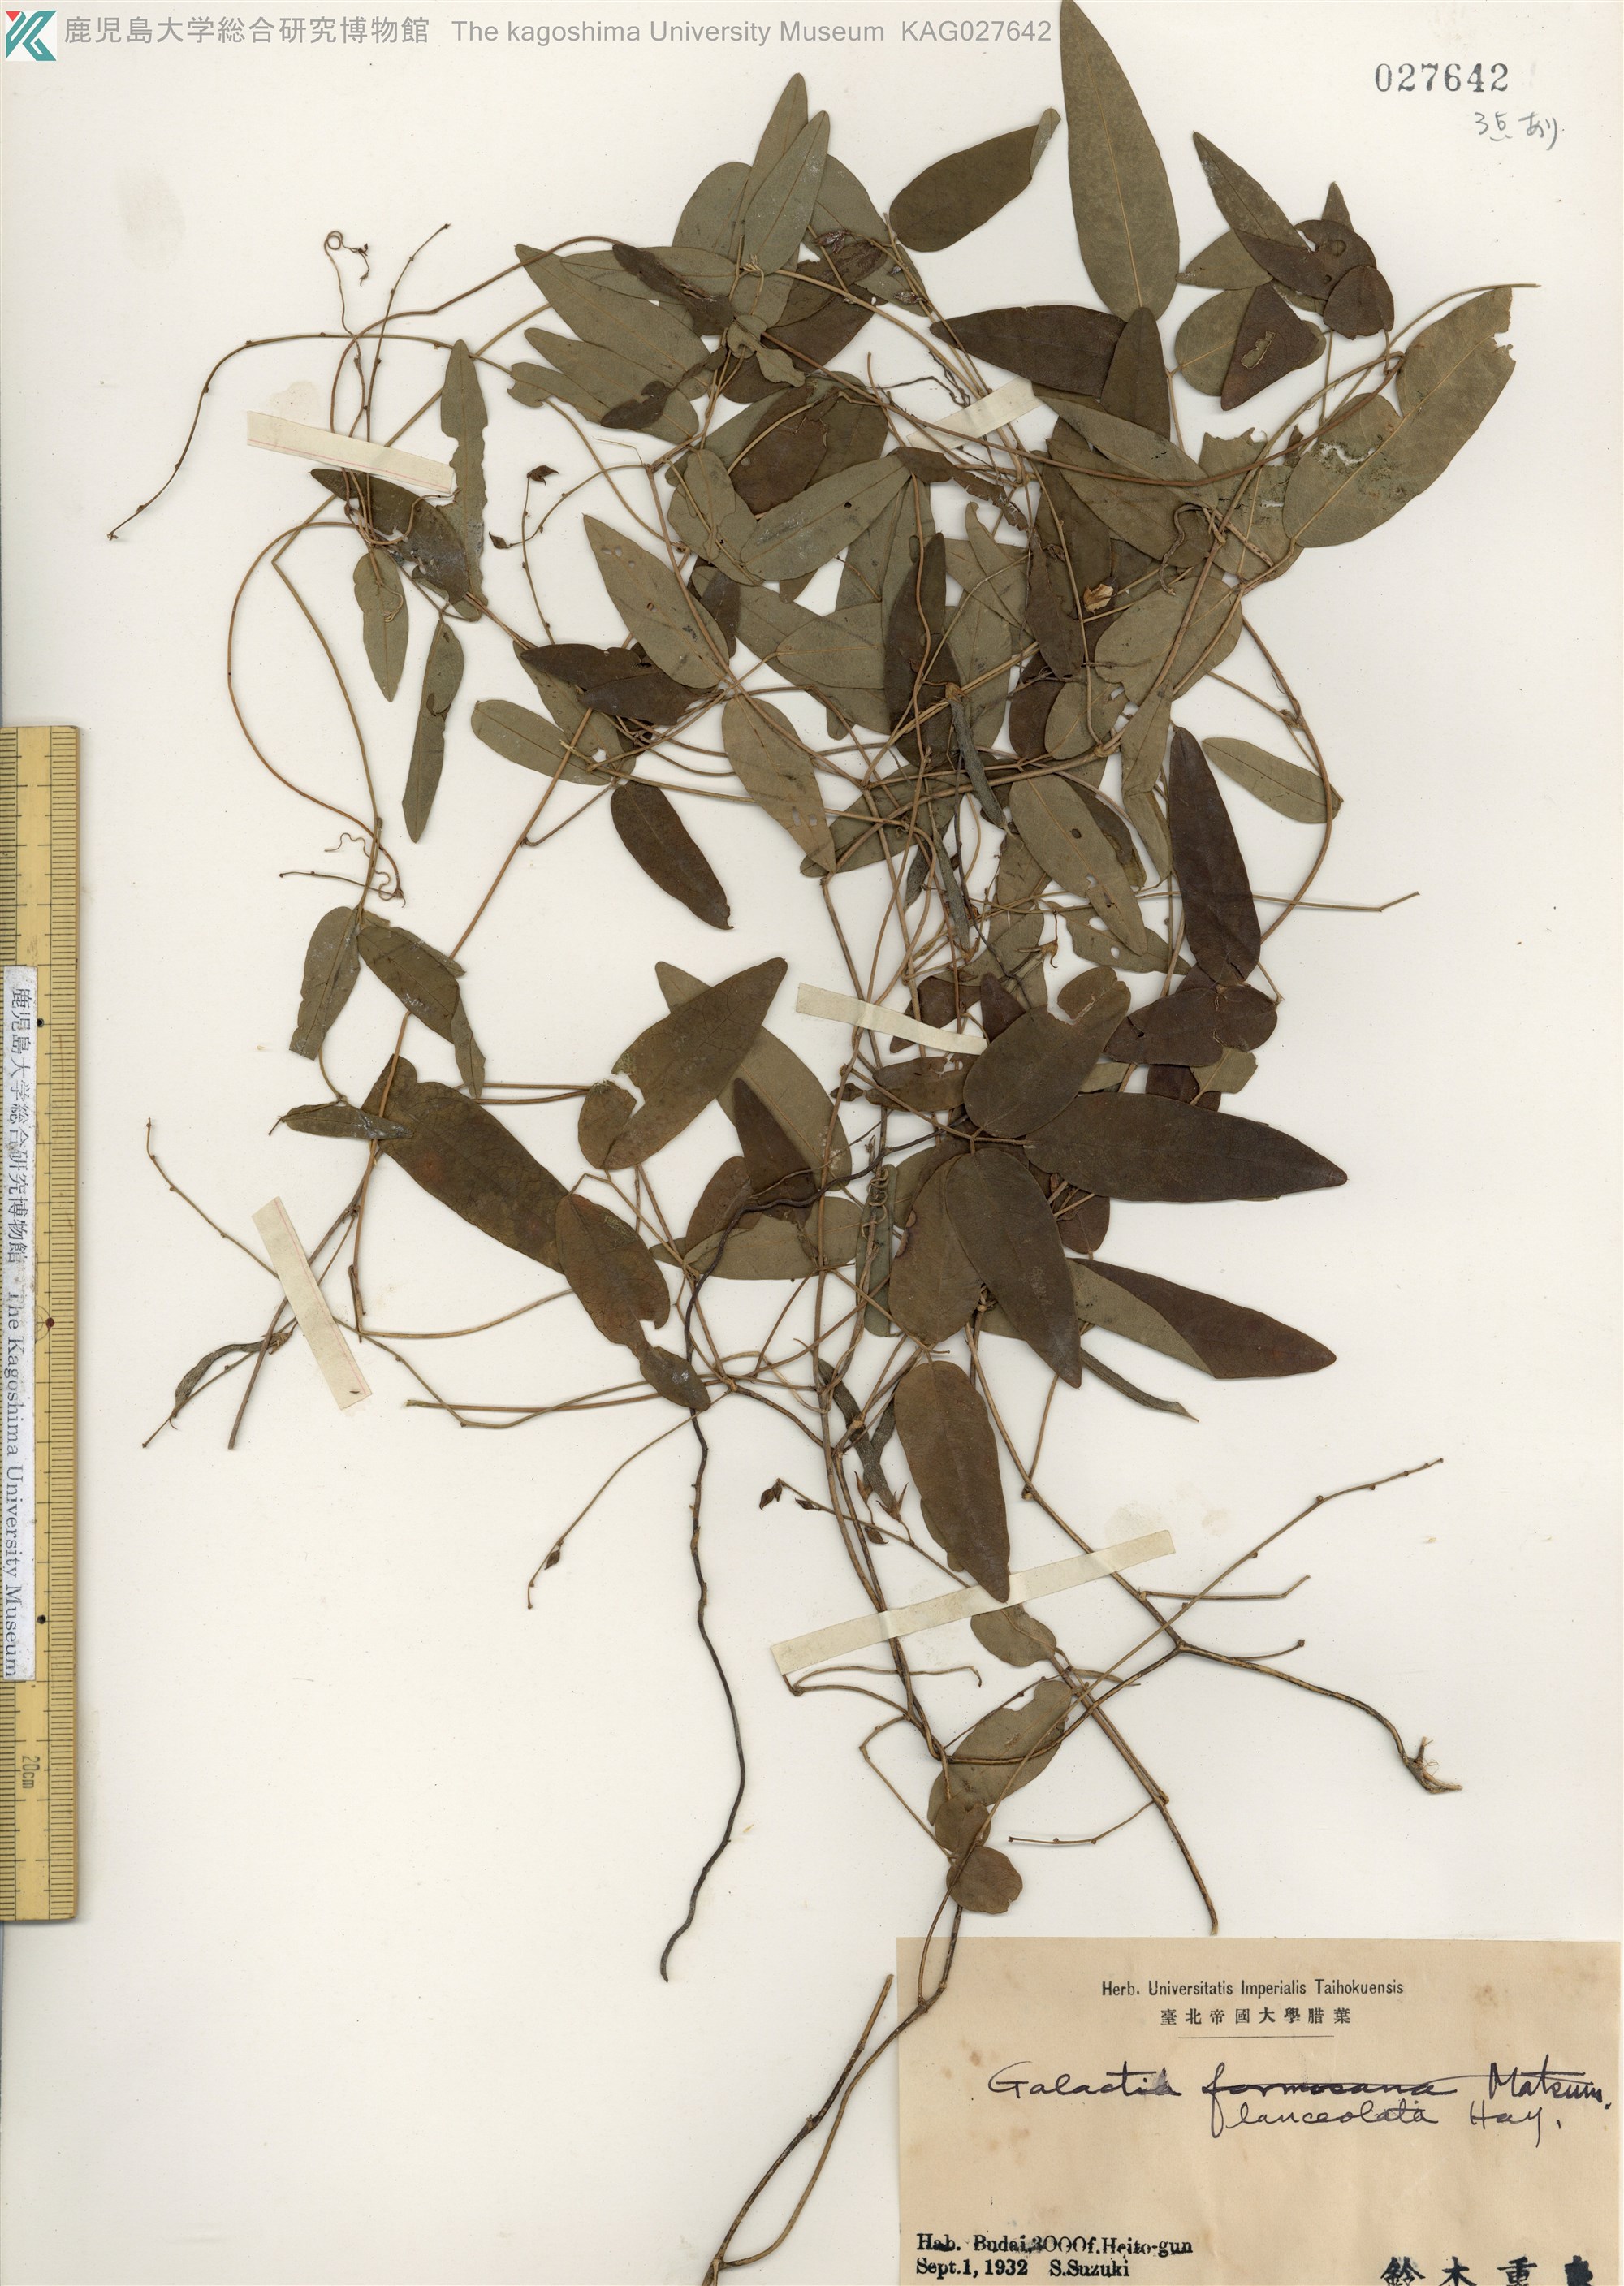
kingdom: Plantae
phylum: Tracheophyta
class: Magnoliopsida
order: Fabales
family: Fabaceae
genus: Galactia
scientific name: Galactia tenuiflora
